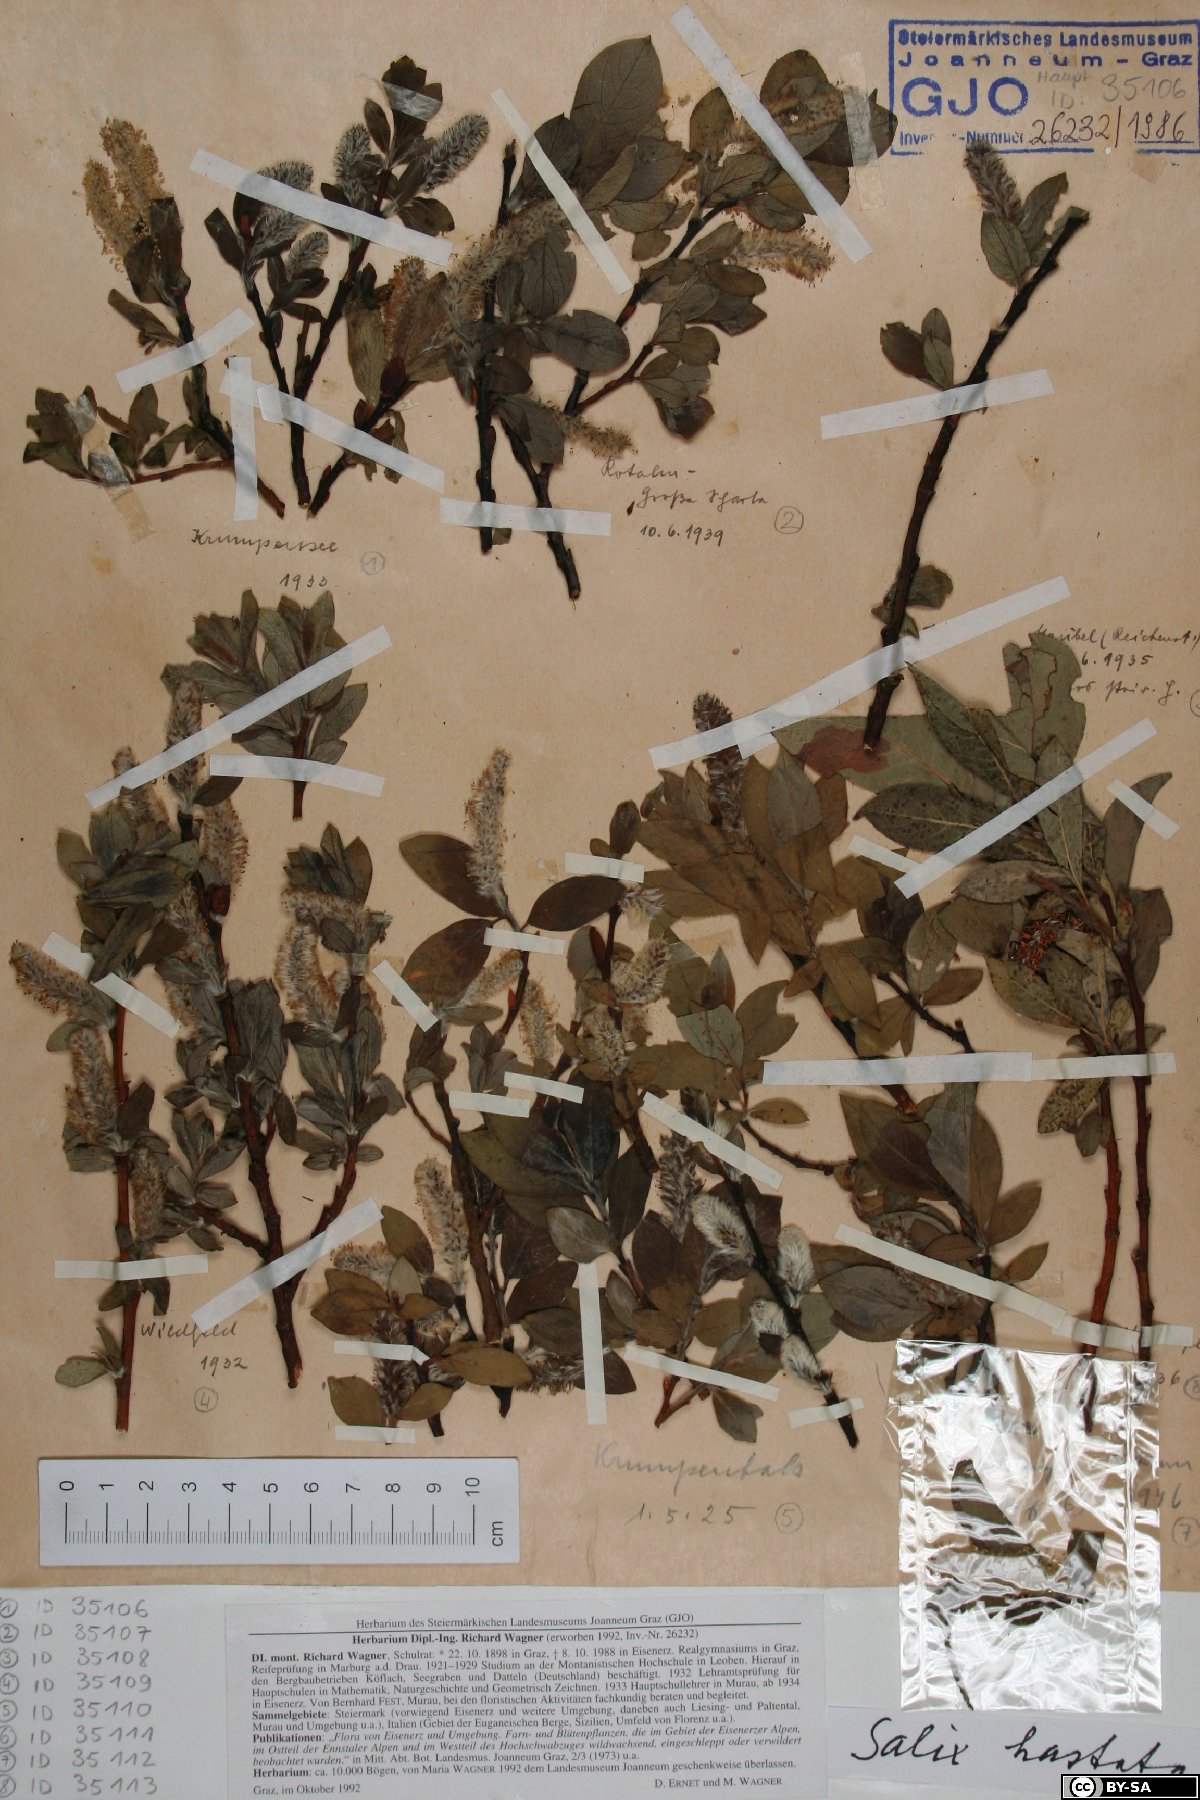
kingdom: Plantae
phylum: Tracheophyta
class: Magnoliopsida
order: Malpighiales
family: Salicaceae
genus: Salix
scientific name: Salix hastata
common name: Halberd willow
